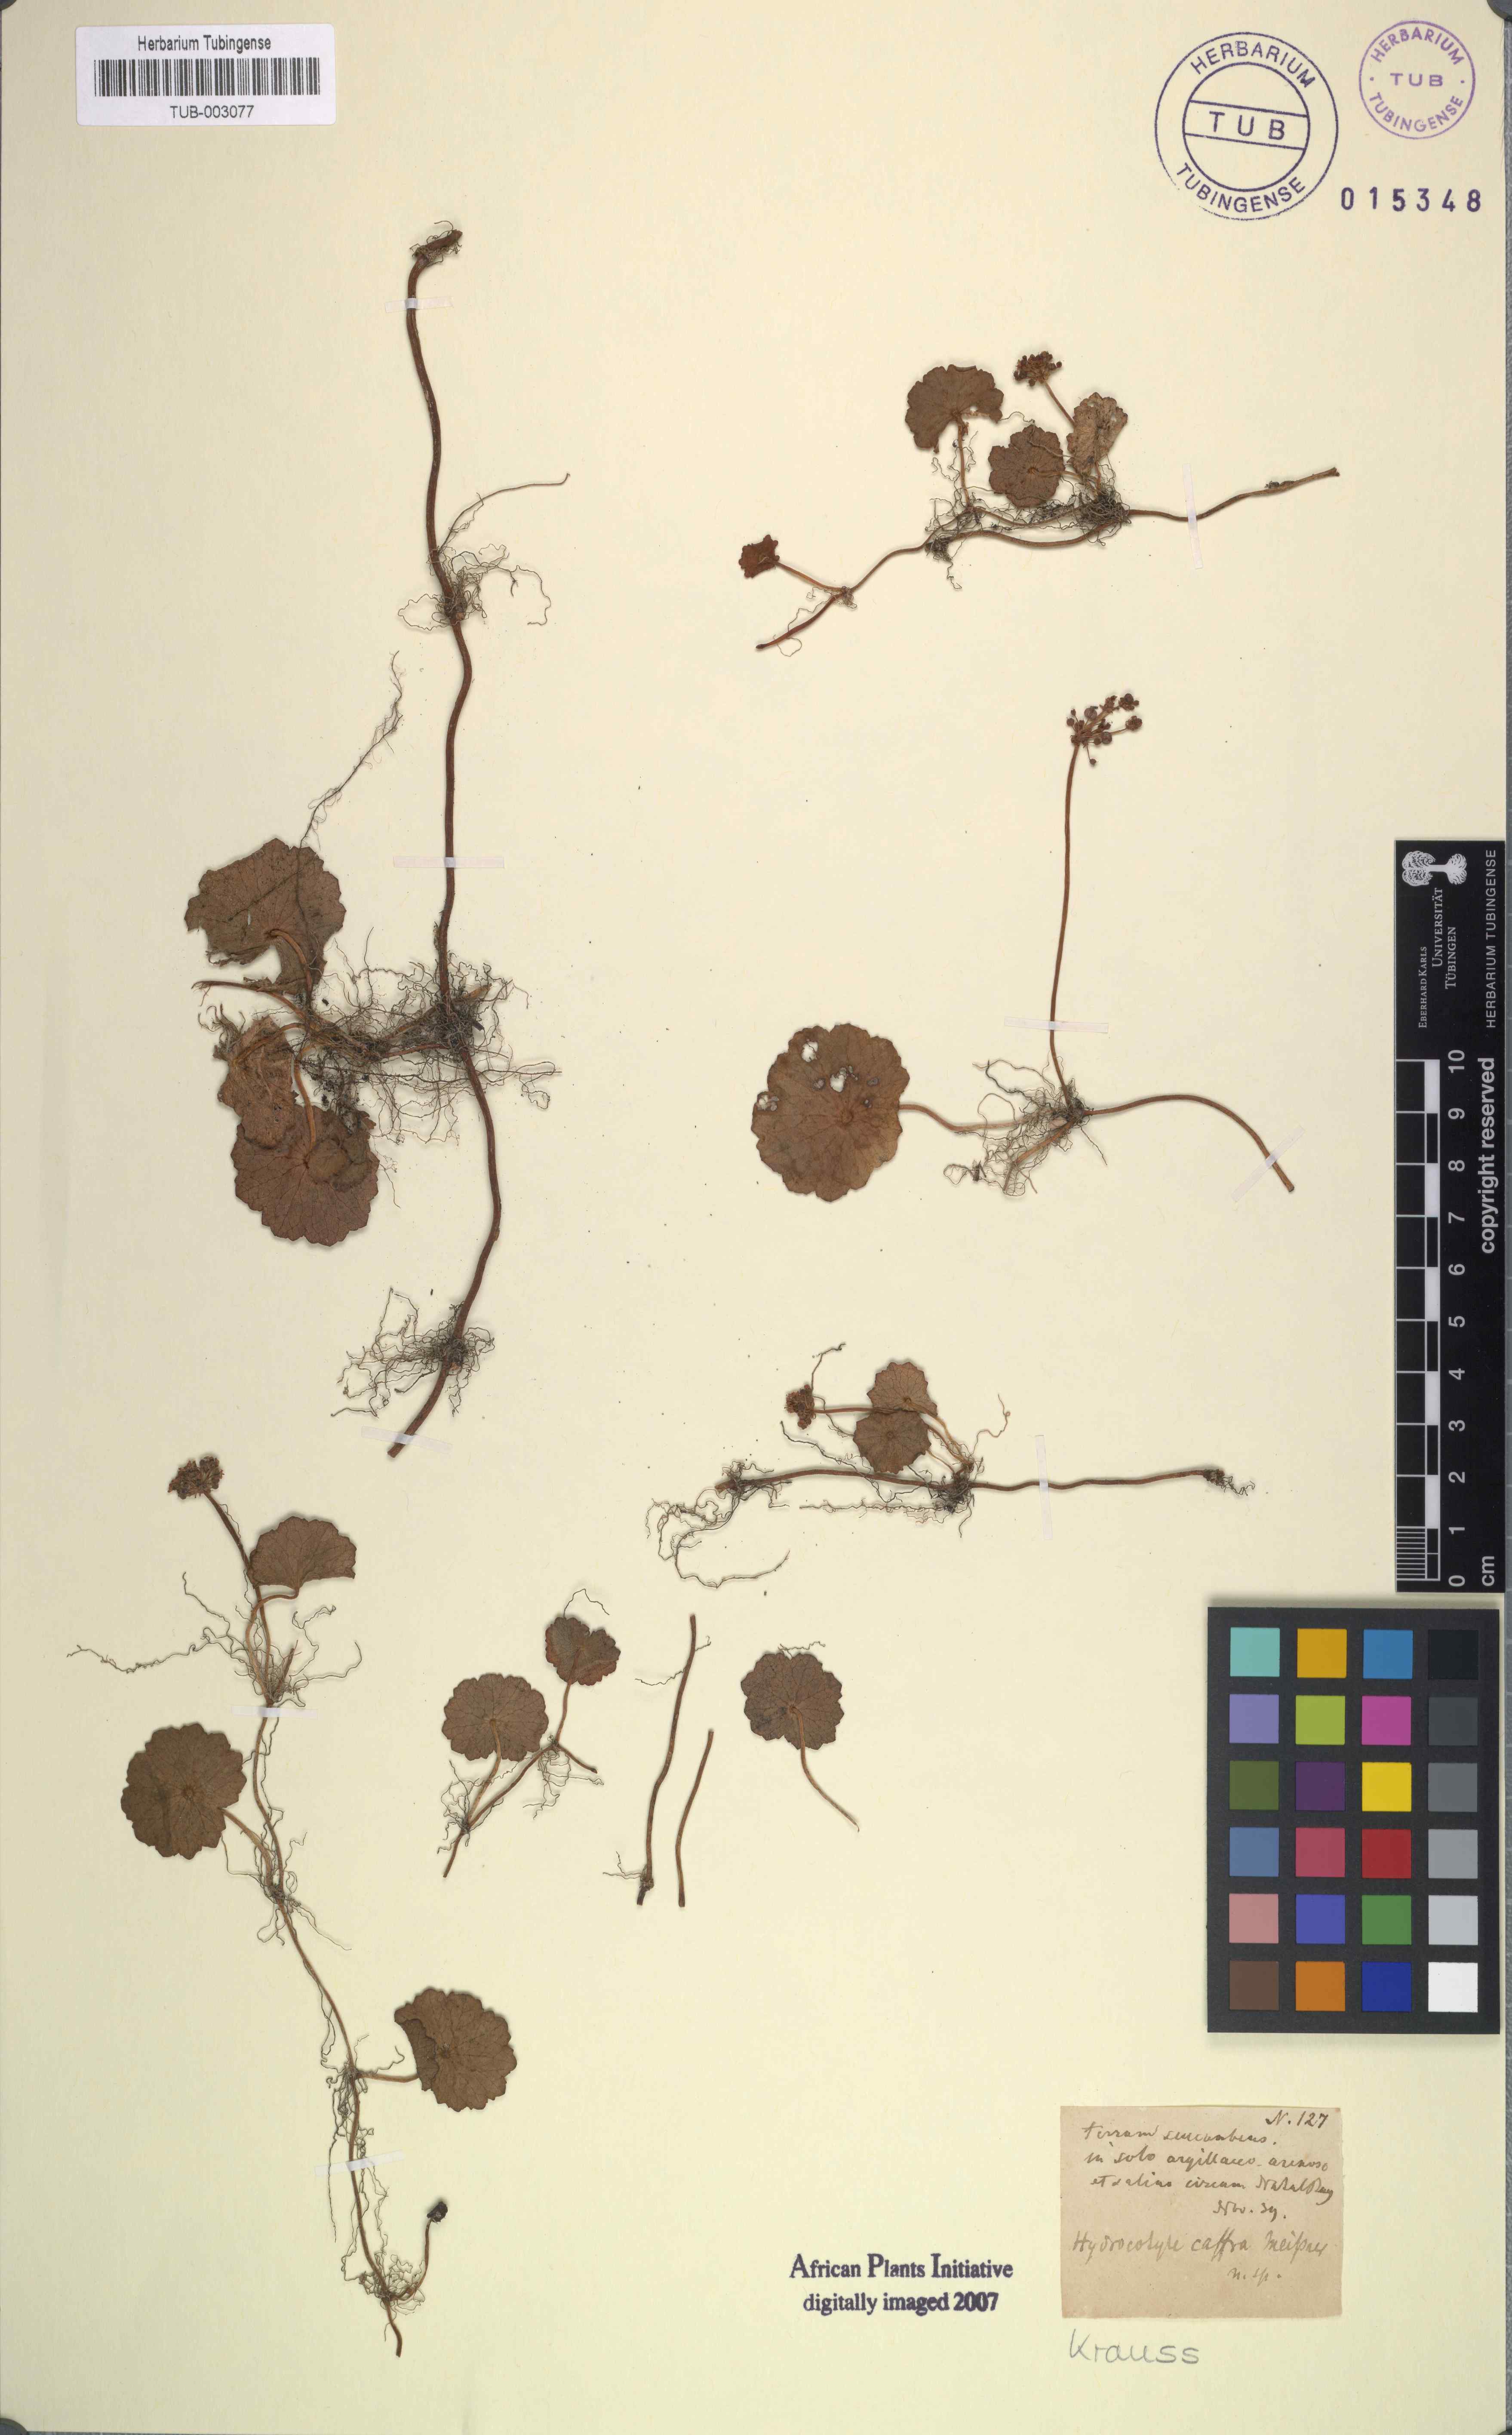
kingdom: Plantae
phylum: Tracheophyta
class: Magnoliopsida
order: Apiales
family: Araliaceae
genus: Hydrocotyle
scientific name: Hydrocotyle umbellata
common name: Water pennywort
